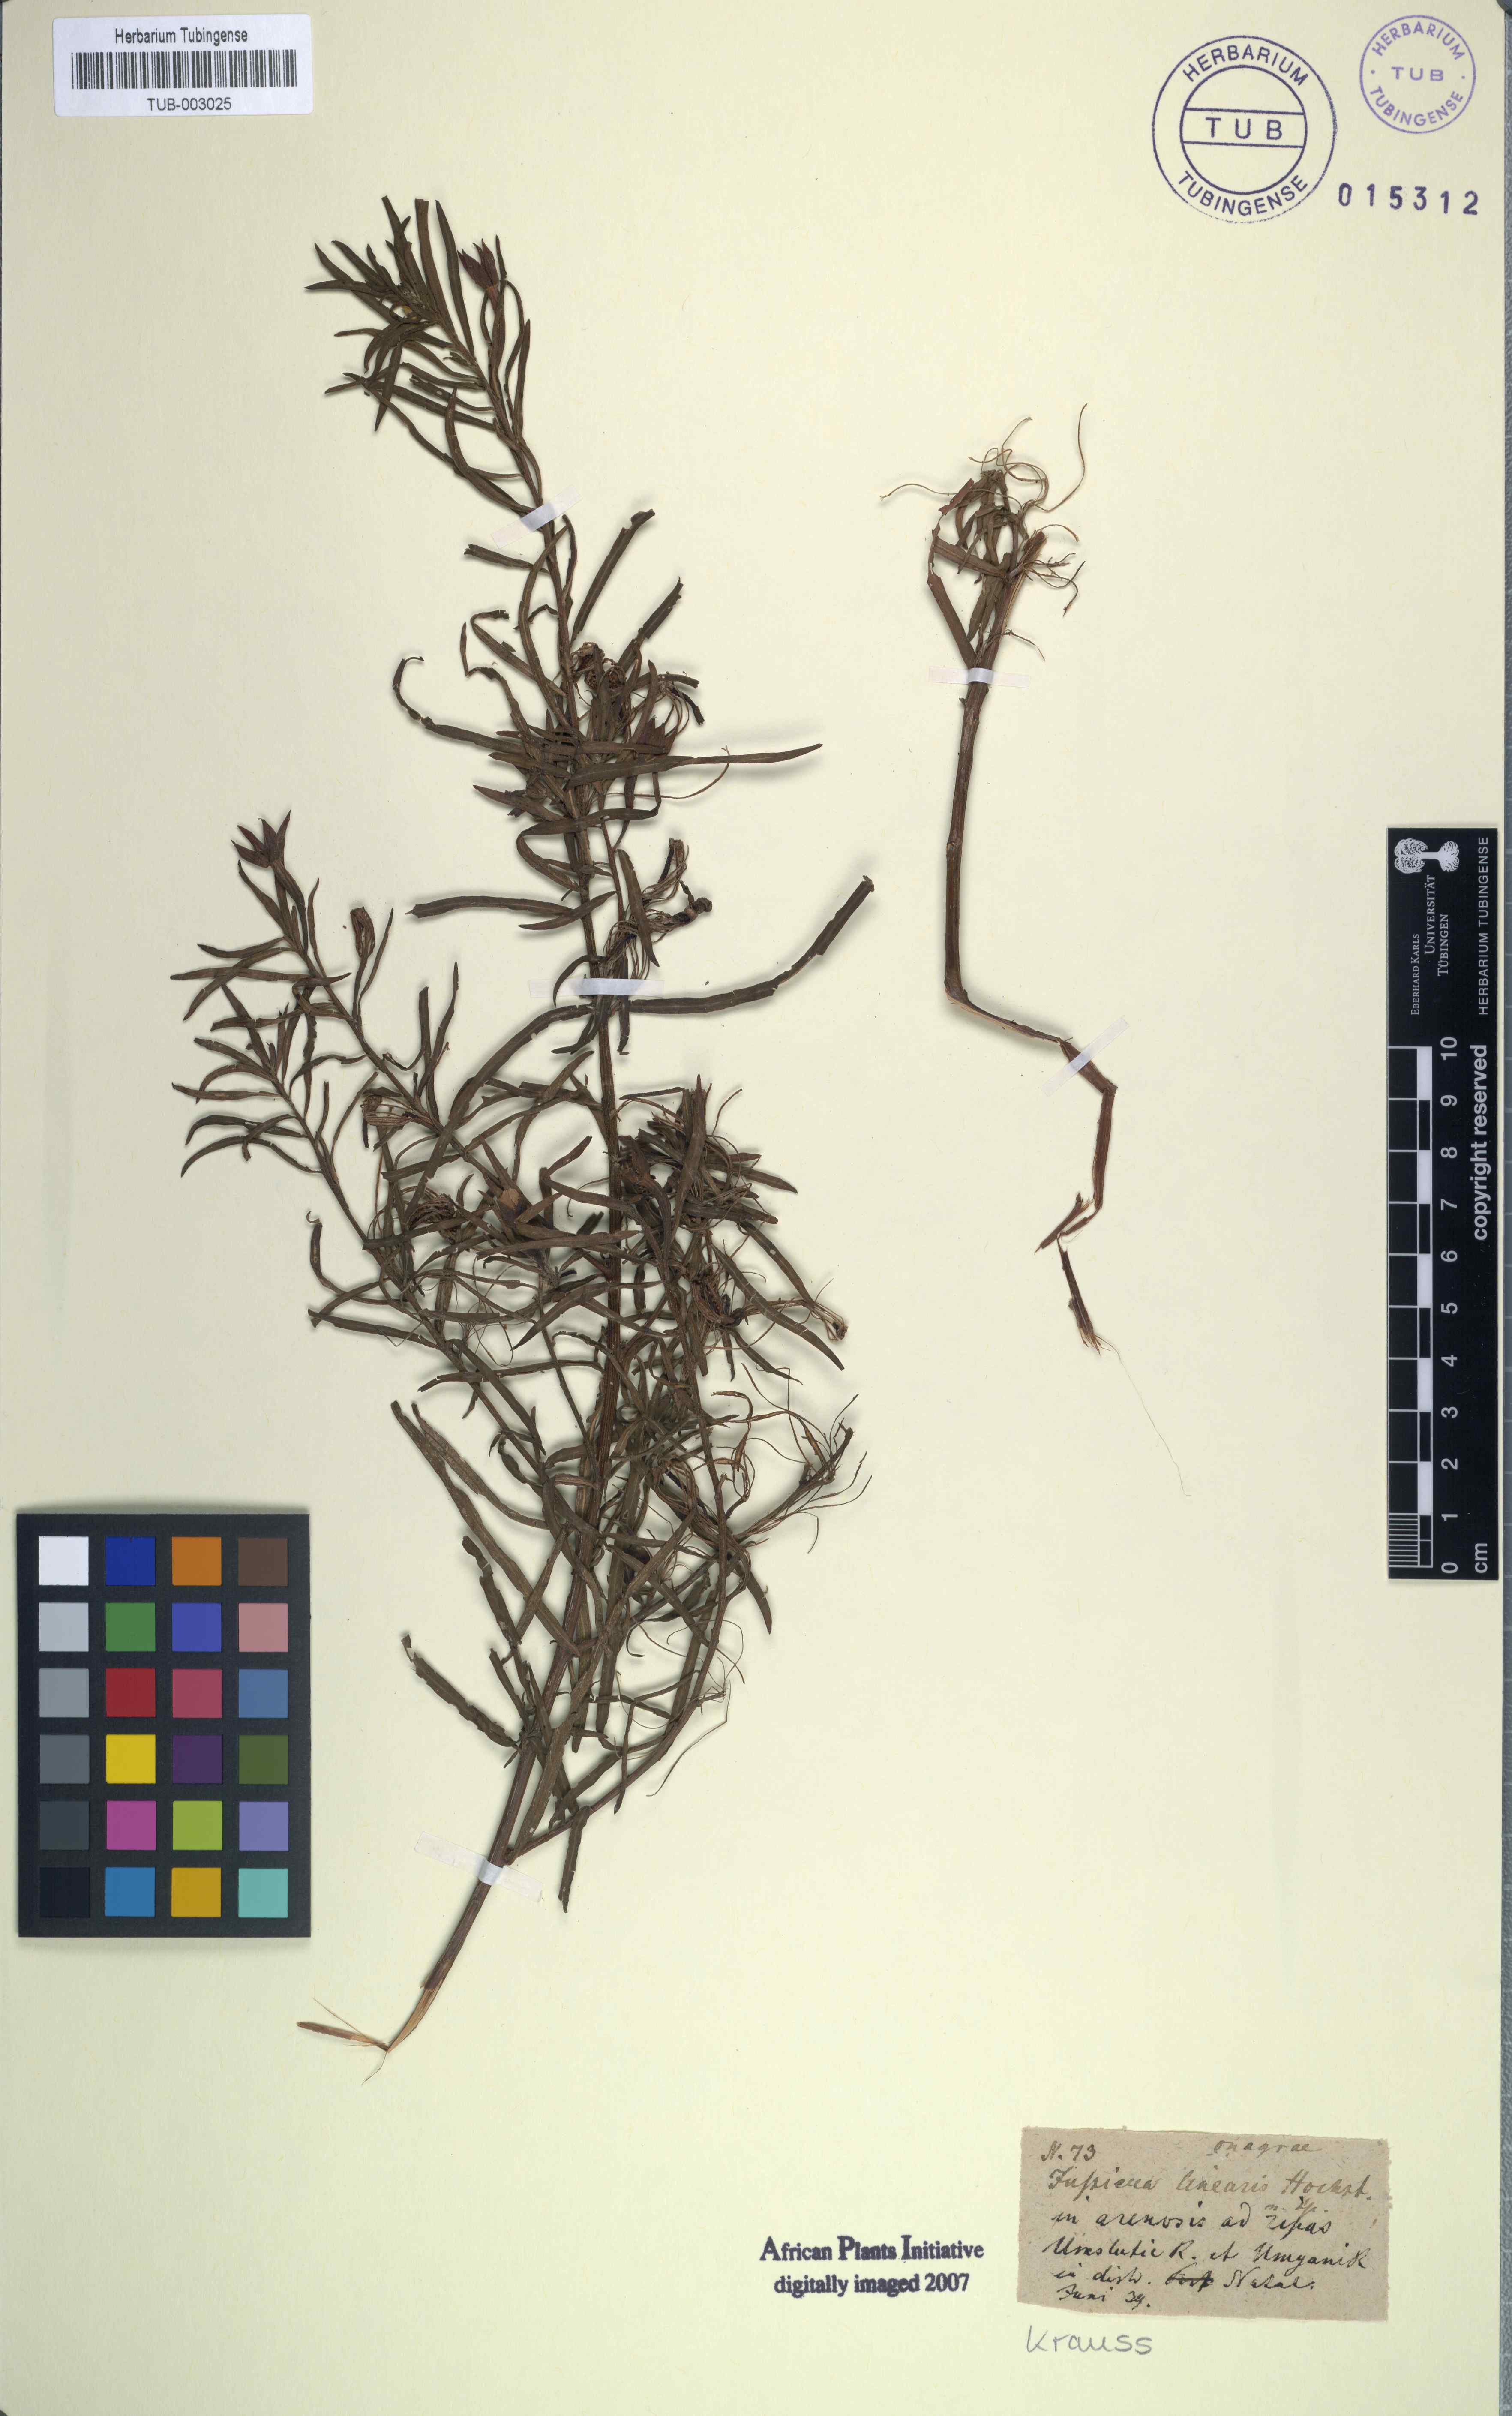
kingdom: Plantae
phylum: Tracheophyta
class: Magnoliopsida
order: Myrtales
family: Onagraceae
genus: Ludwigia
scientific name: Ludwigia octovalvis
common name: Water-primrose
